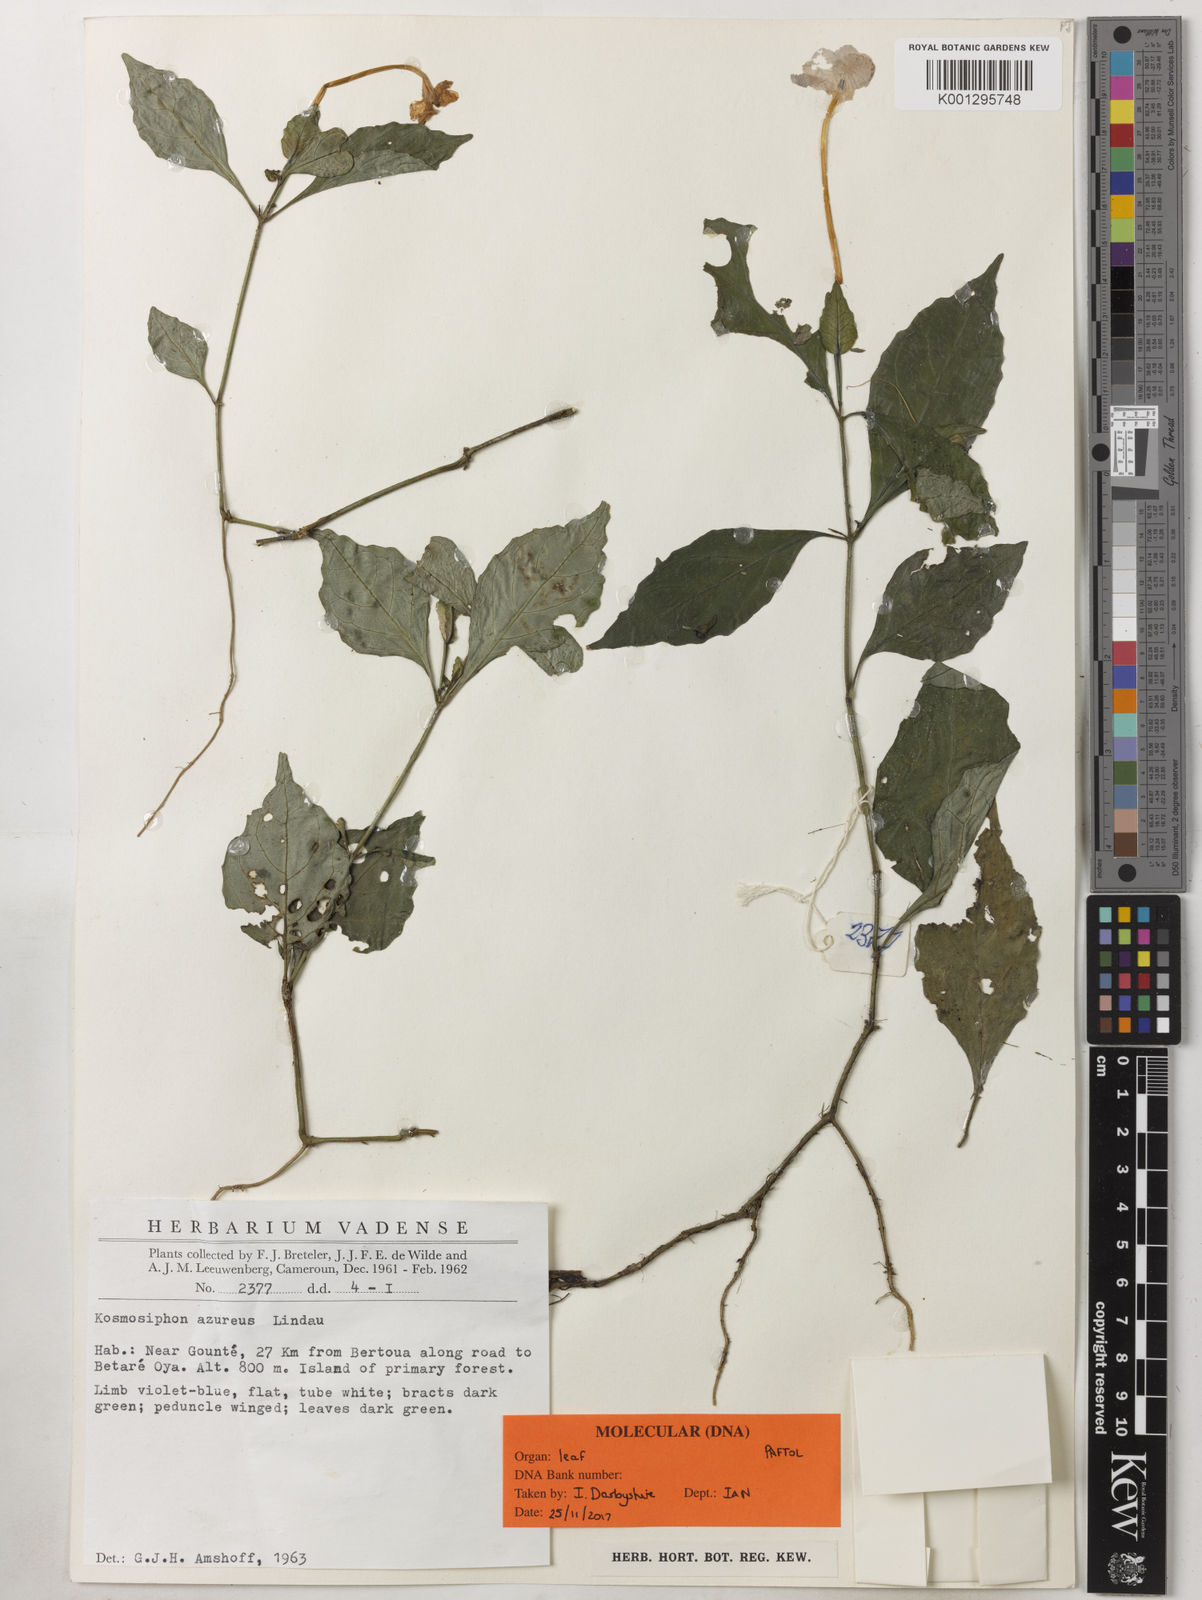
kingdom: Plantae
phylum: Tracheophyta
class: Magnoliopsida
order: Lamiales
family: Acanthaceae
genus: Kosmosiphon
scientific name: Kosmosiphon azureus
